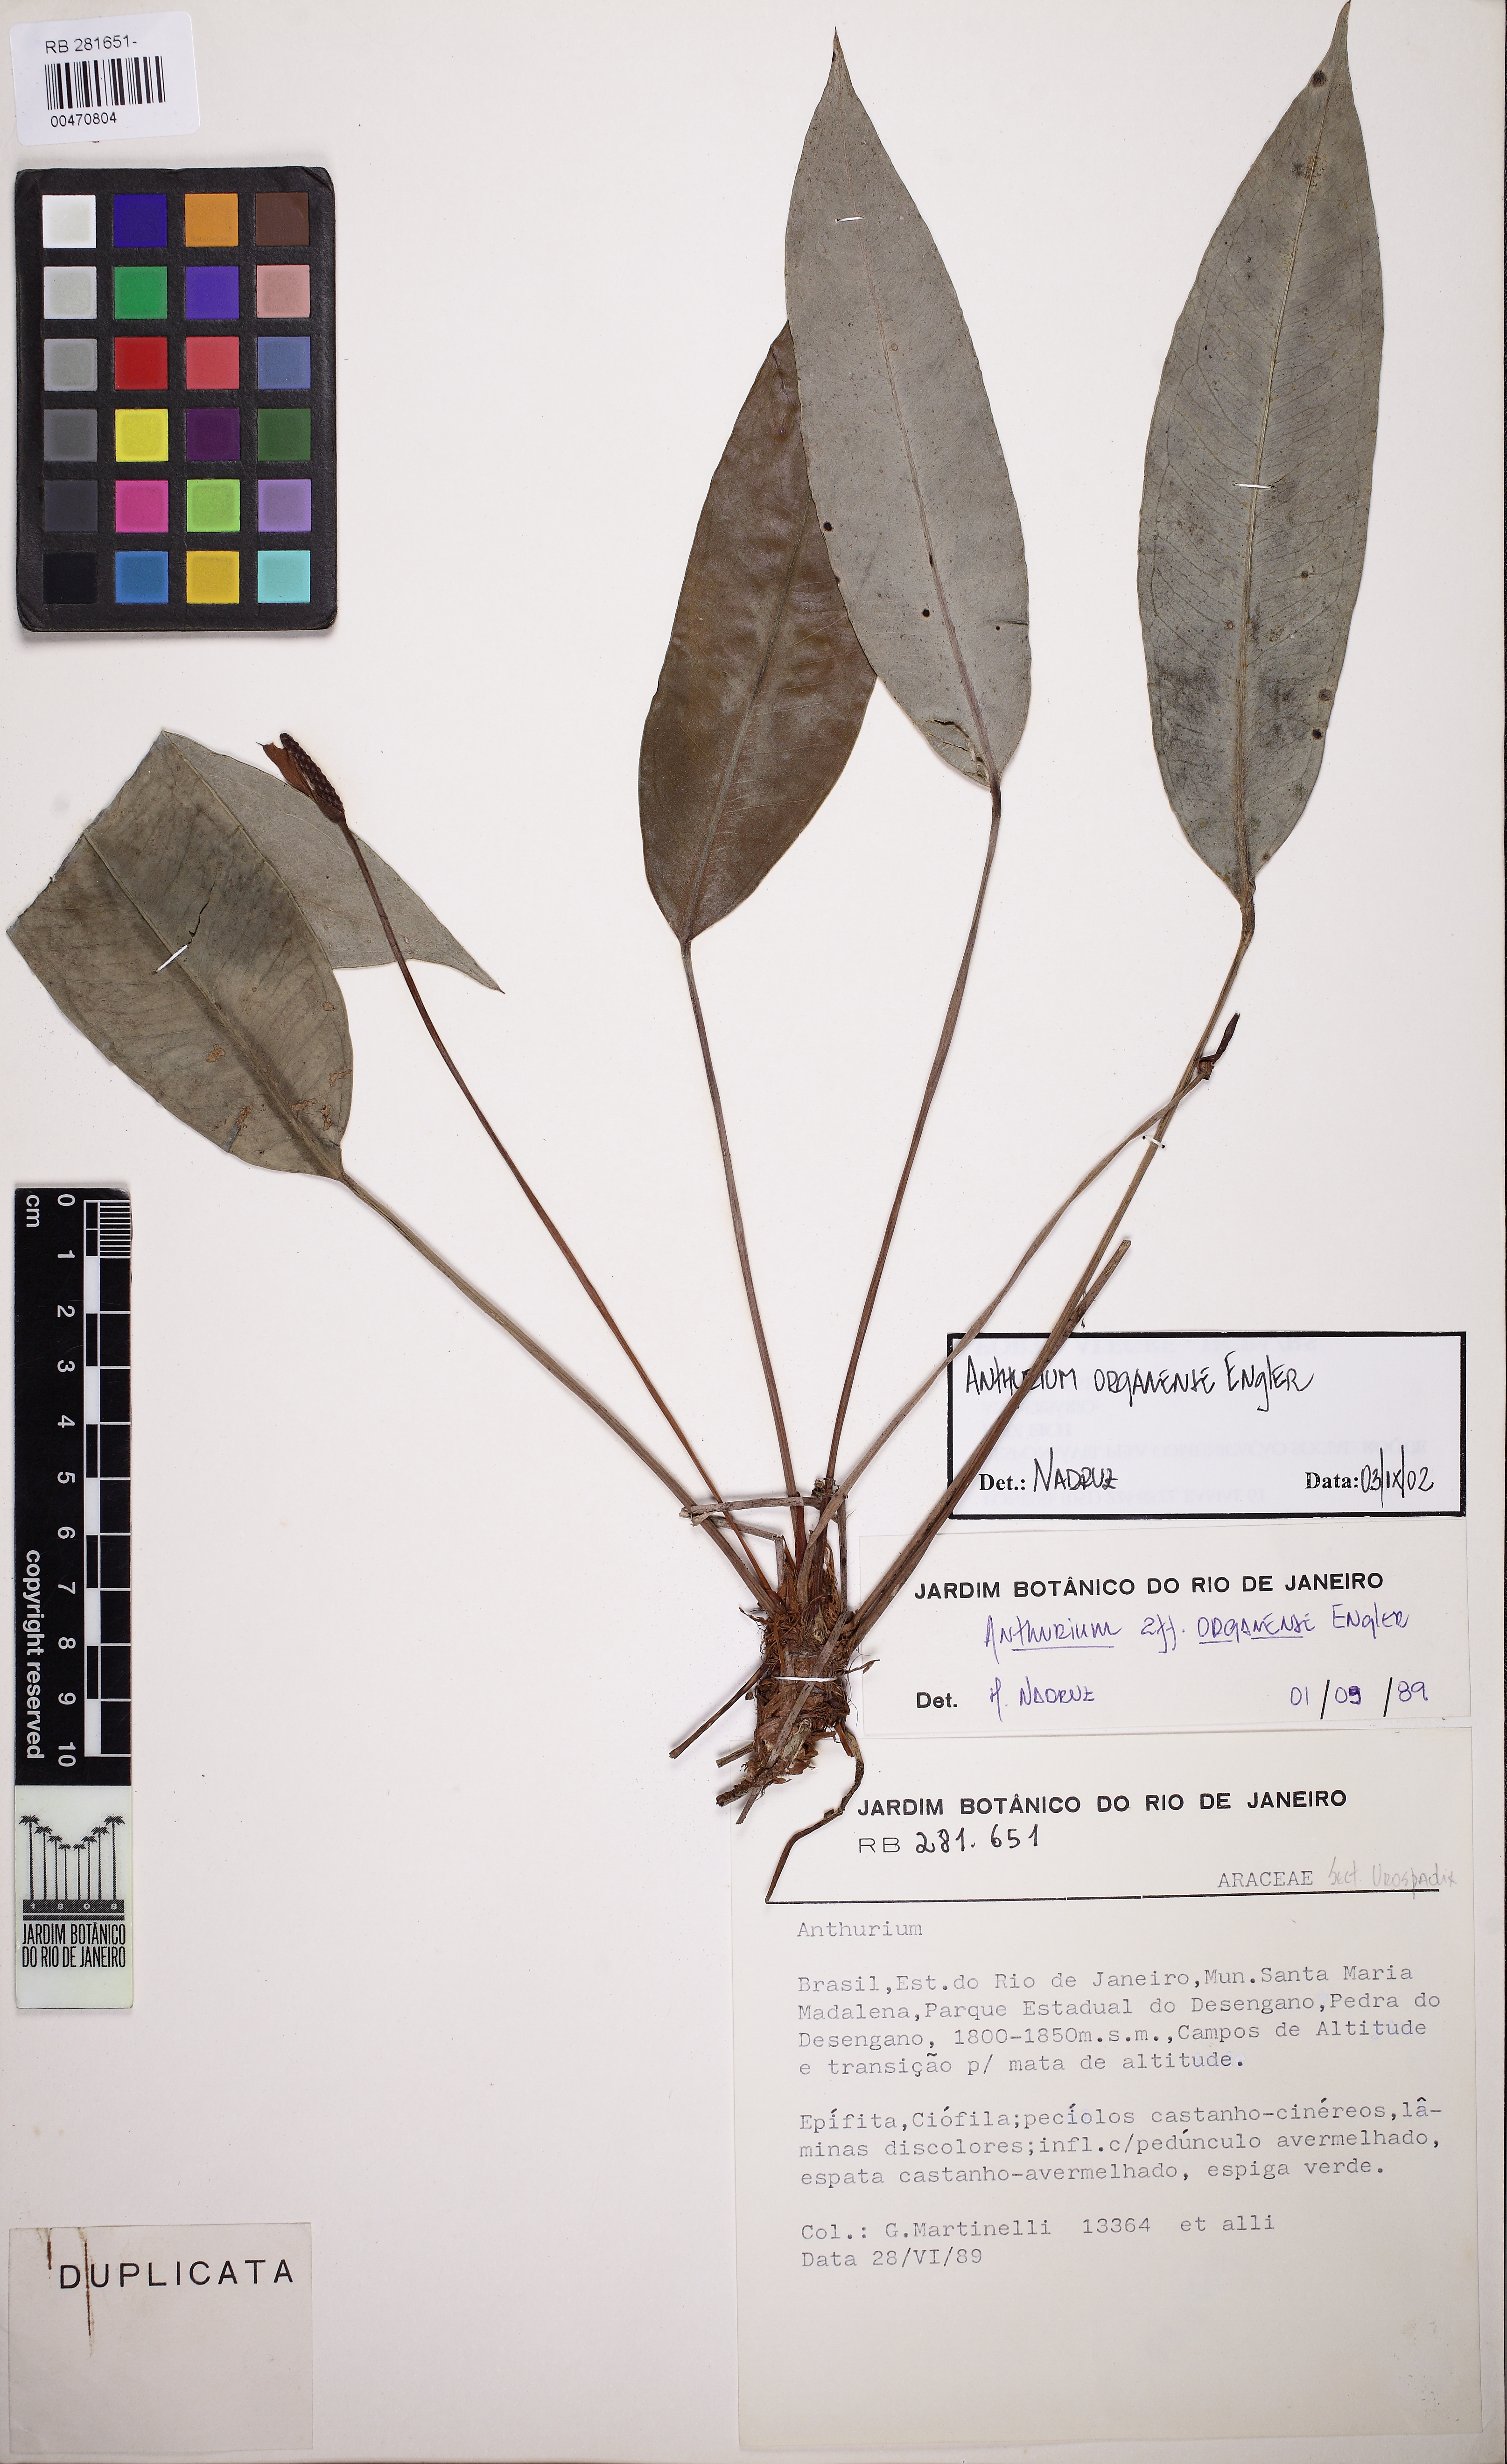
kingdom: Plantae
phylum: Tracheophyta
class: Liliopsida
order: Alismatales
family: Araceae
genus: Anthurium
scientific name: Anthurium organense
